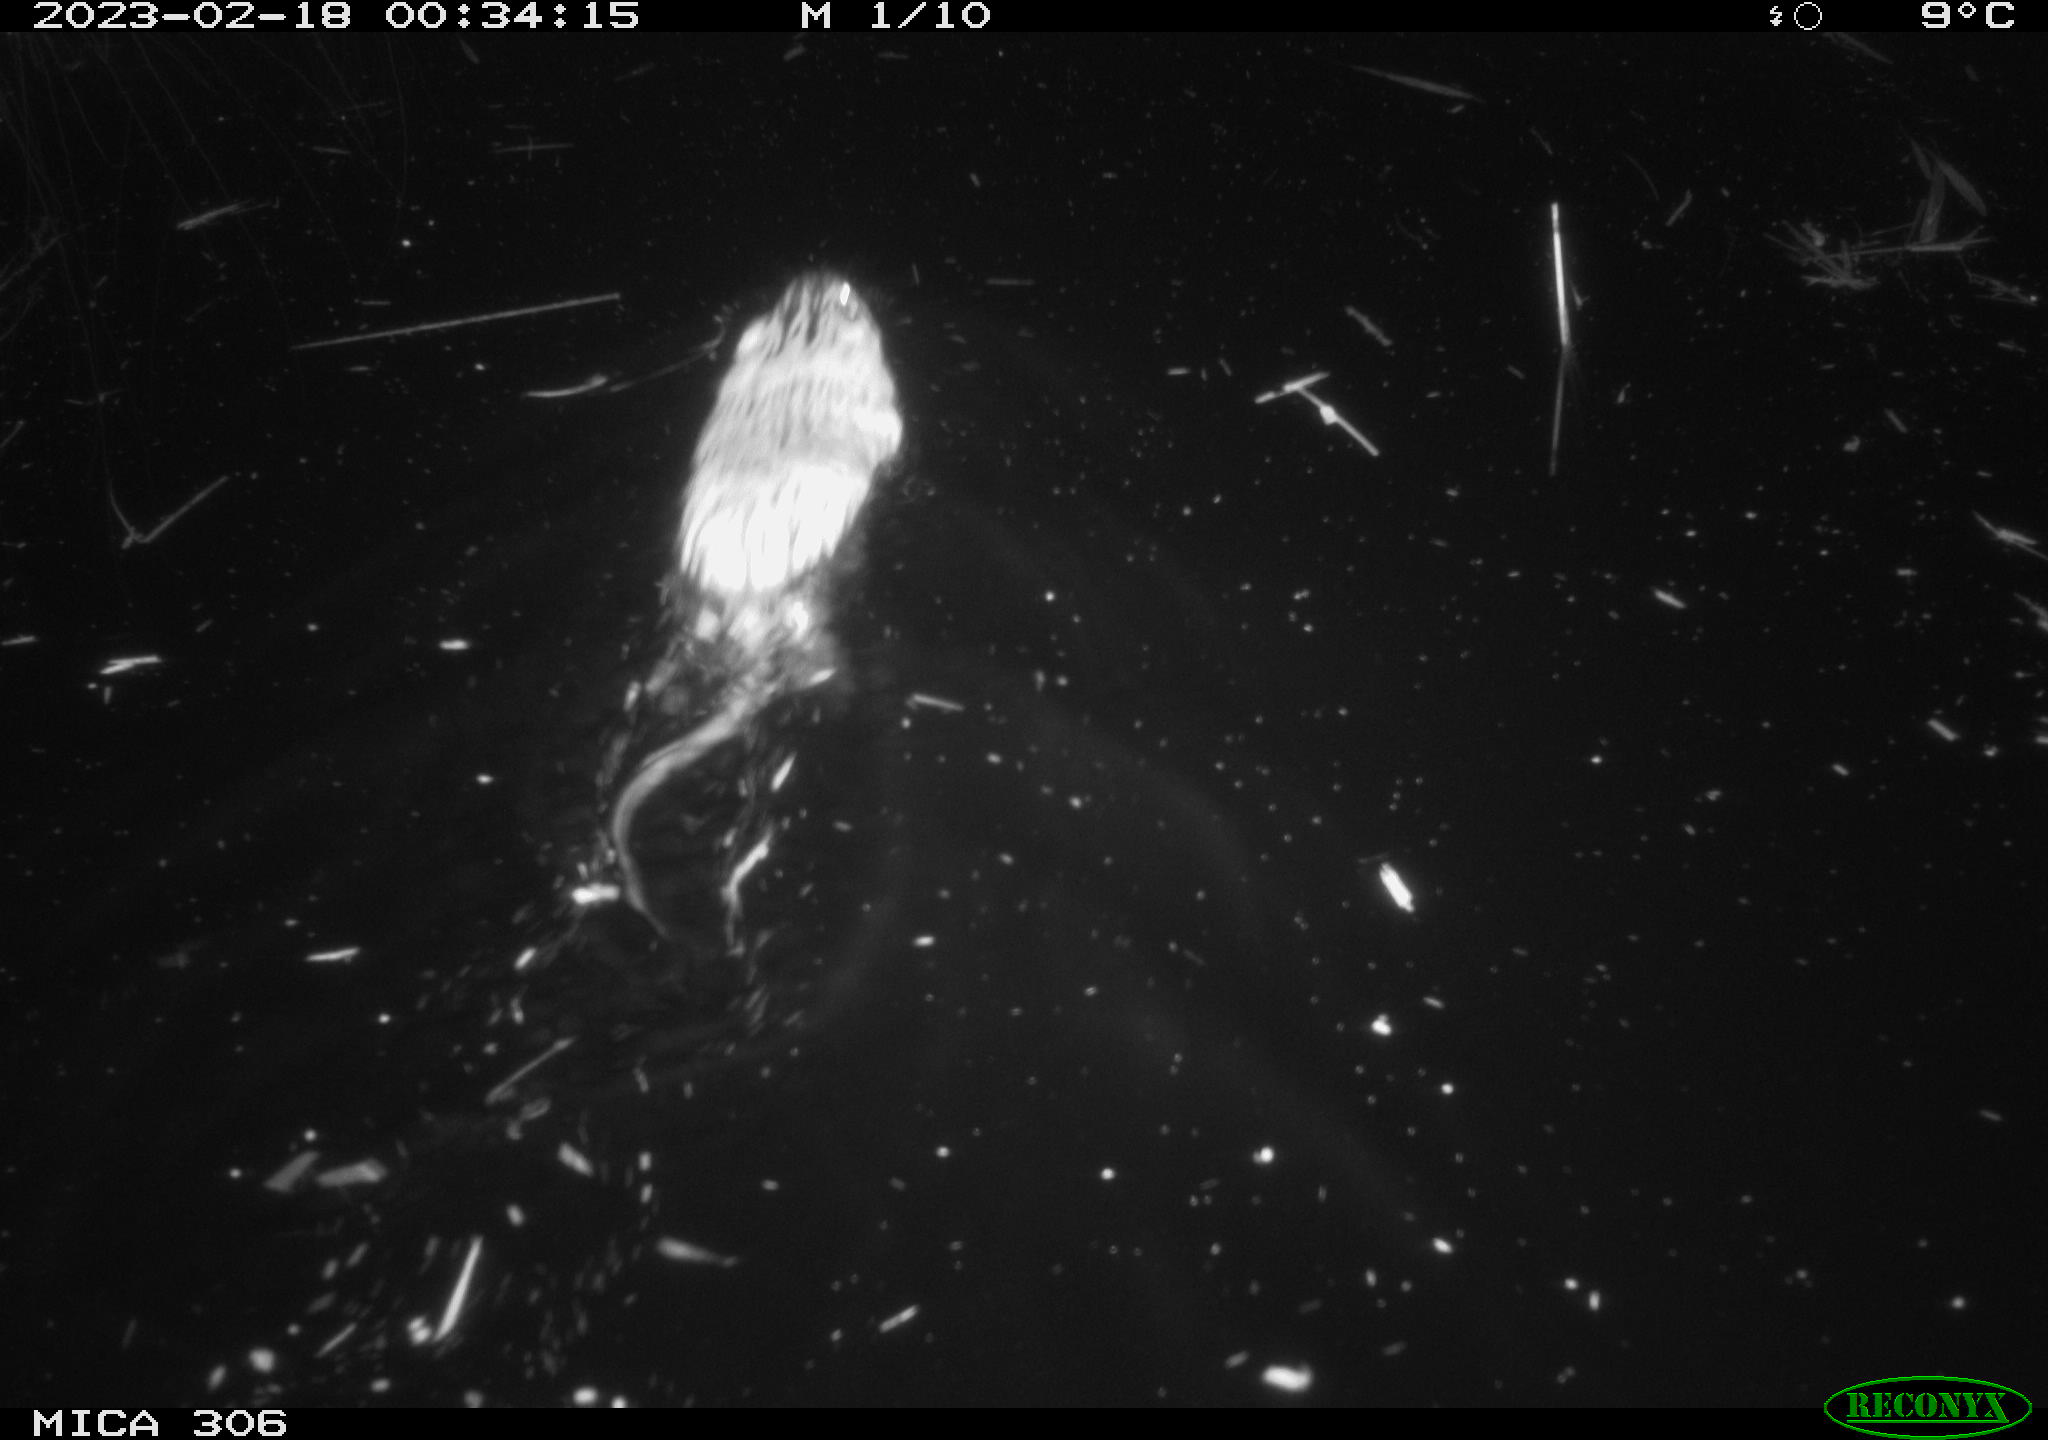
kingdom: Animalia
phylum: Chordata
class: Mammalia
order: Rodentia
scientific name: Rodentia
